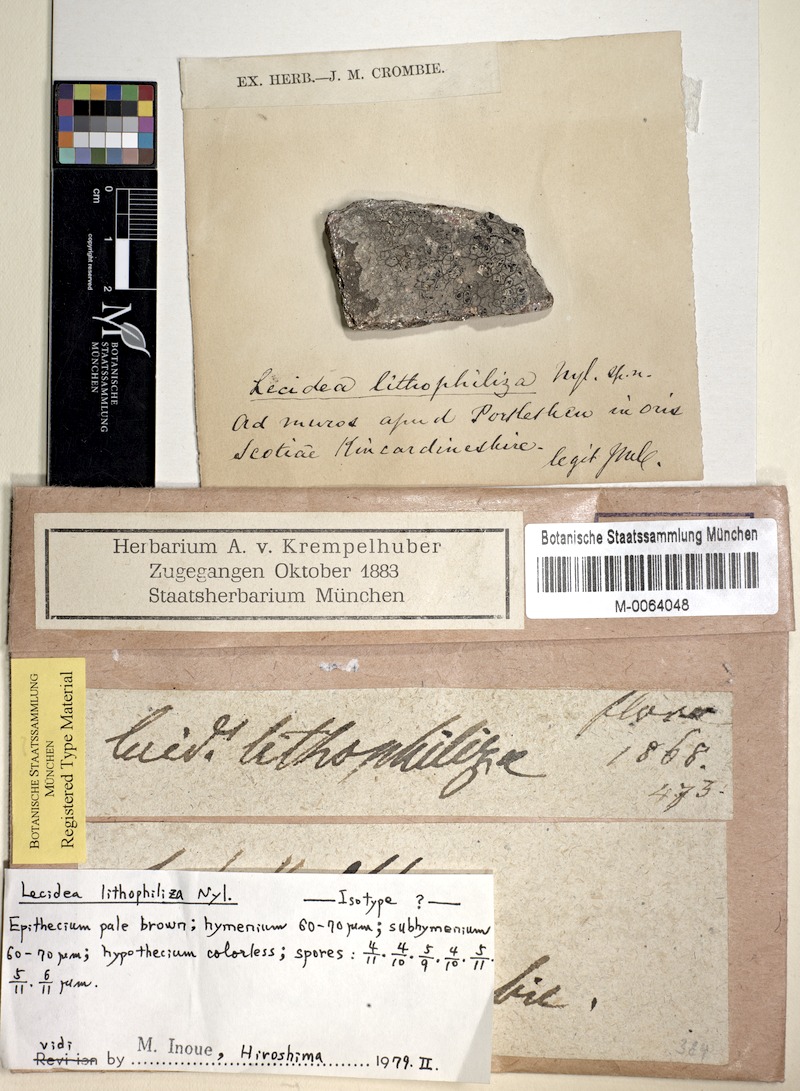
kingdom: Fungi
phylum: Ascomycota
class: Lecanoromycetes
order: Lecideales
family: Lecideaceae
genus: Lecidea
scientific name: Lecidea lithophila
